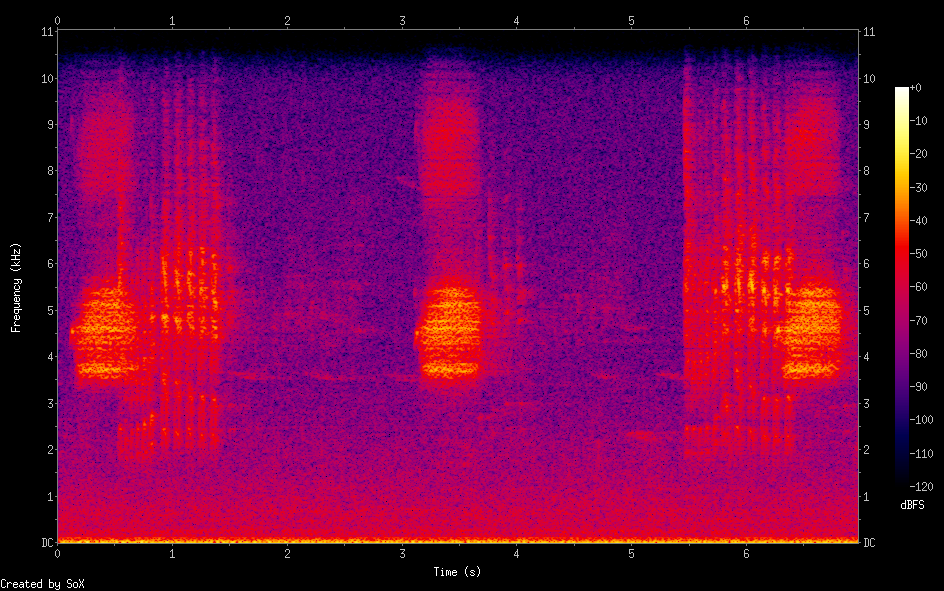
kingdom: Animalia
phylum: Chordata
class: Aves
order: Passeriformes
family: Fringillidae
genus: Fringilla
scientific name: Fringilla montifringilla
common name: Brambling
